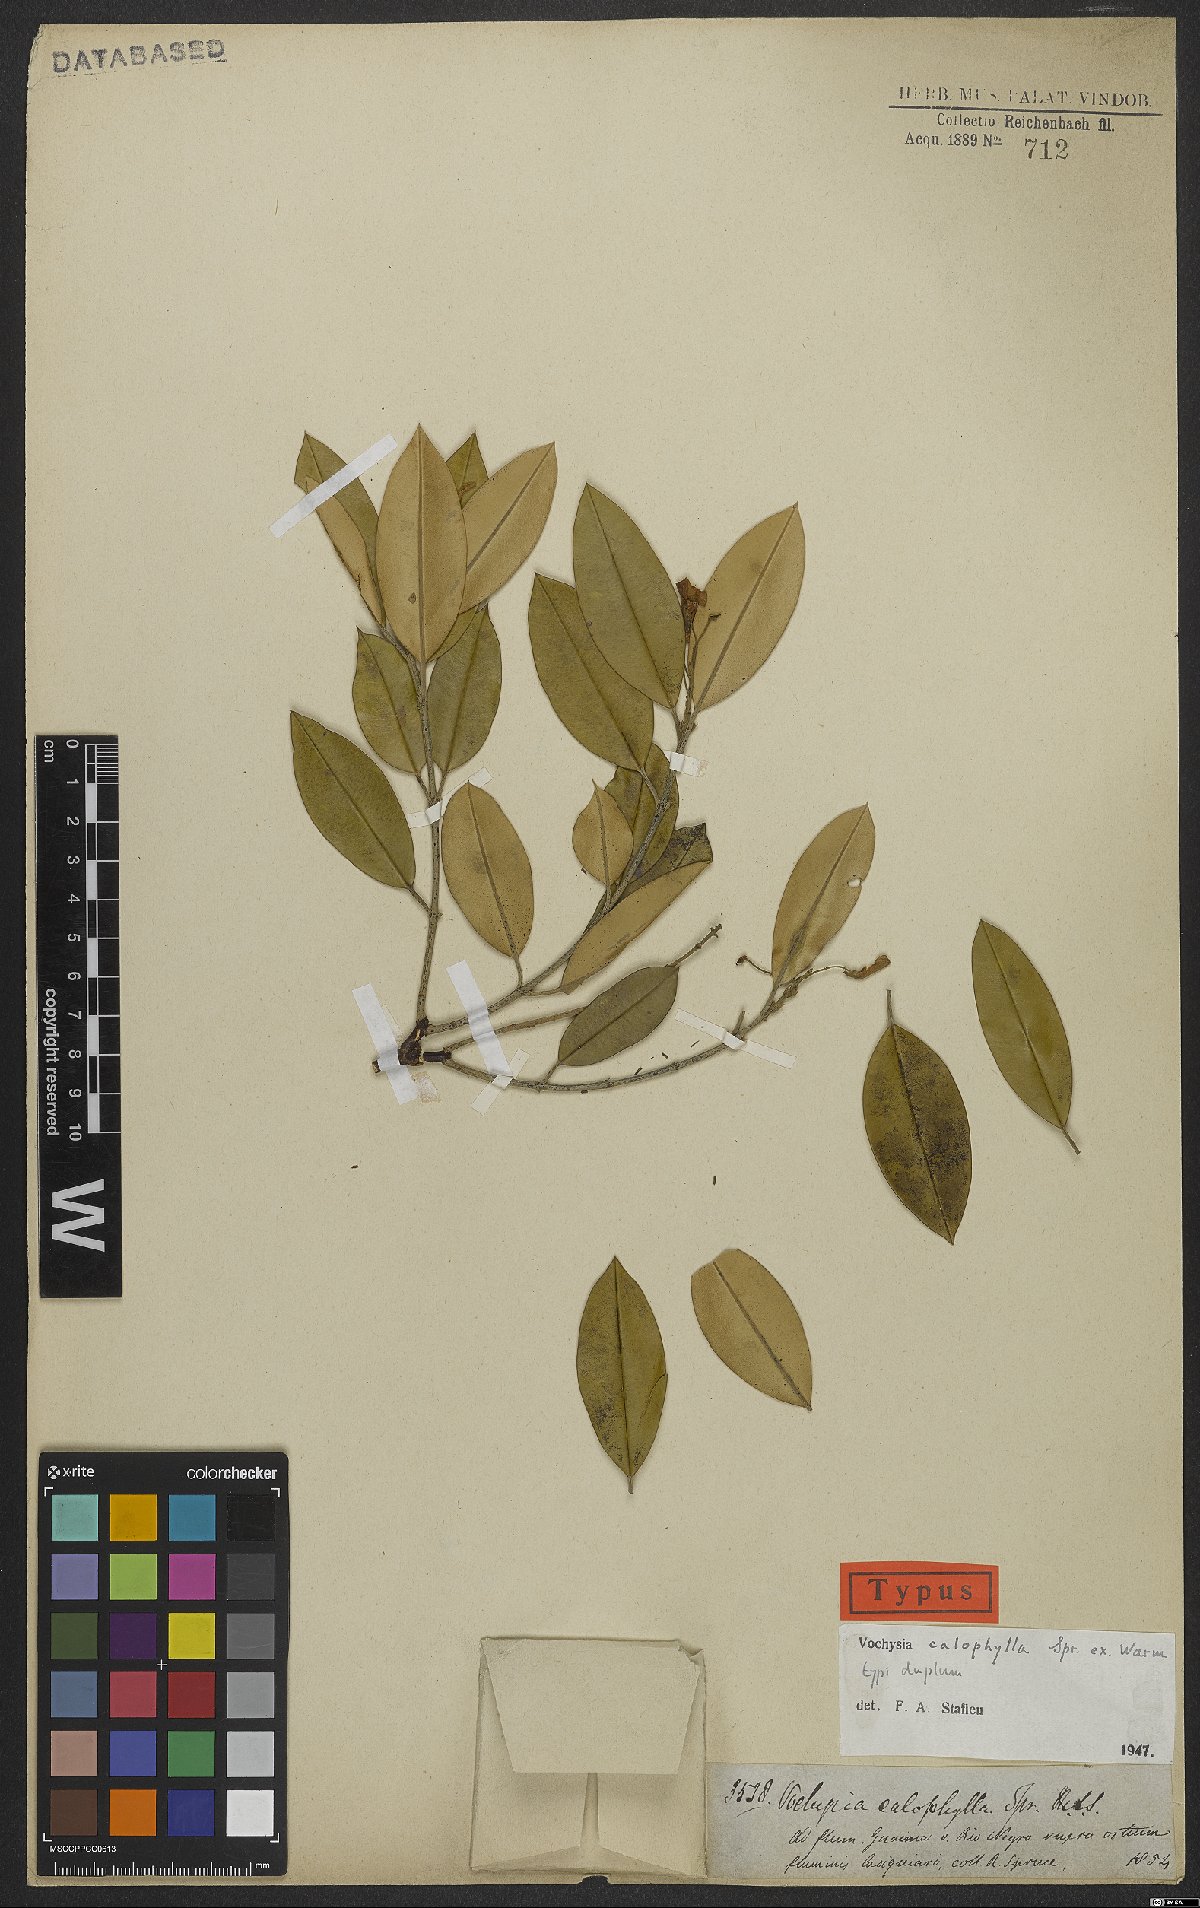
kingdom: Plantae
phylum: Tracheophyta
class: Magnoliopsida
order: Myrtales
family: Vochysiaceae
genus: Vochysia
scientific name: Vochysia calophylla
